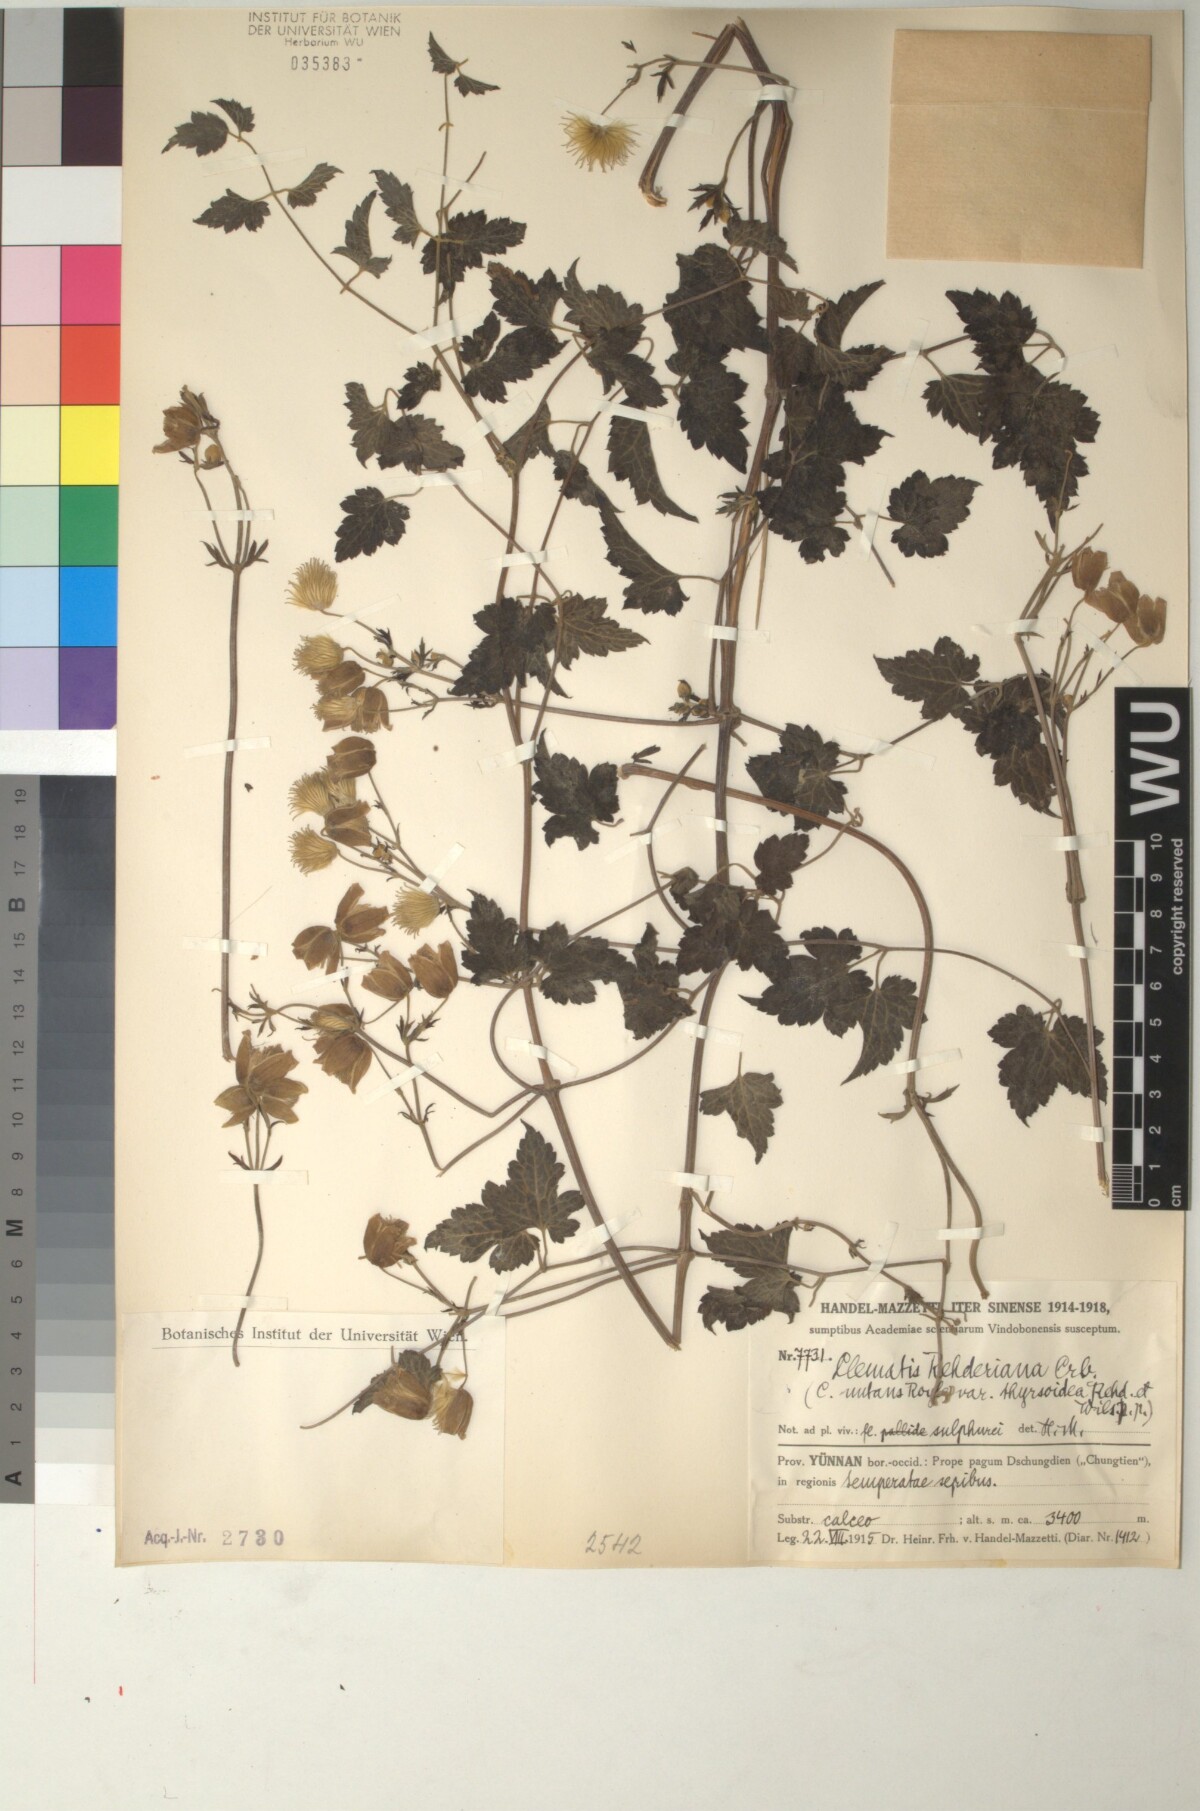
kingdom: Plantae
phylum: Tracheophyta
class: Magnoliopsida
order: Ranunculales
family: Ranunculaceae
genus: Clematis
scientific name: Clematis rehderiana
